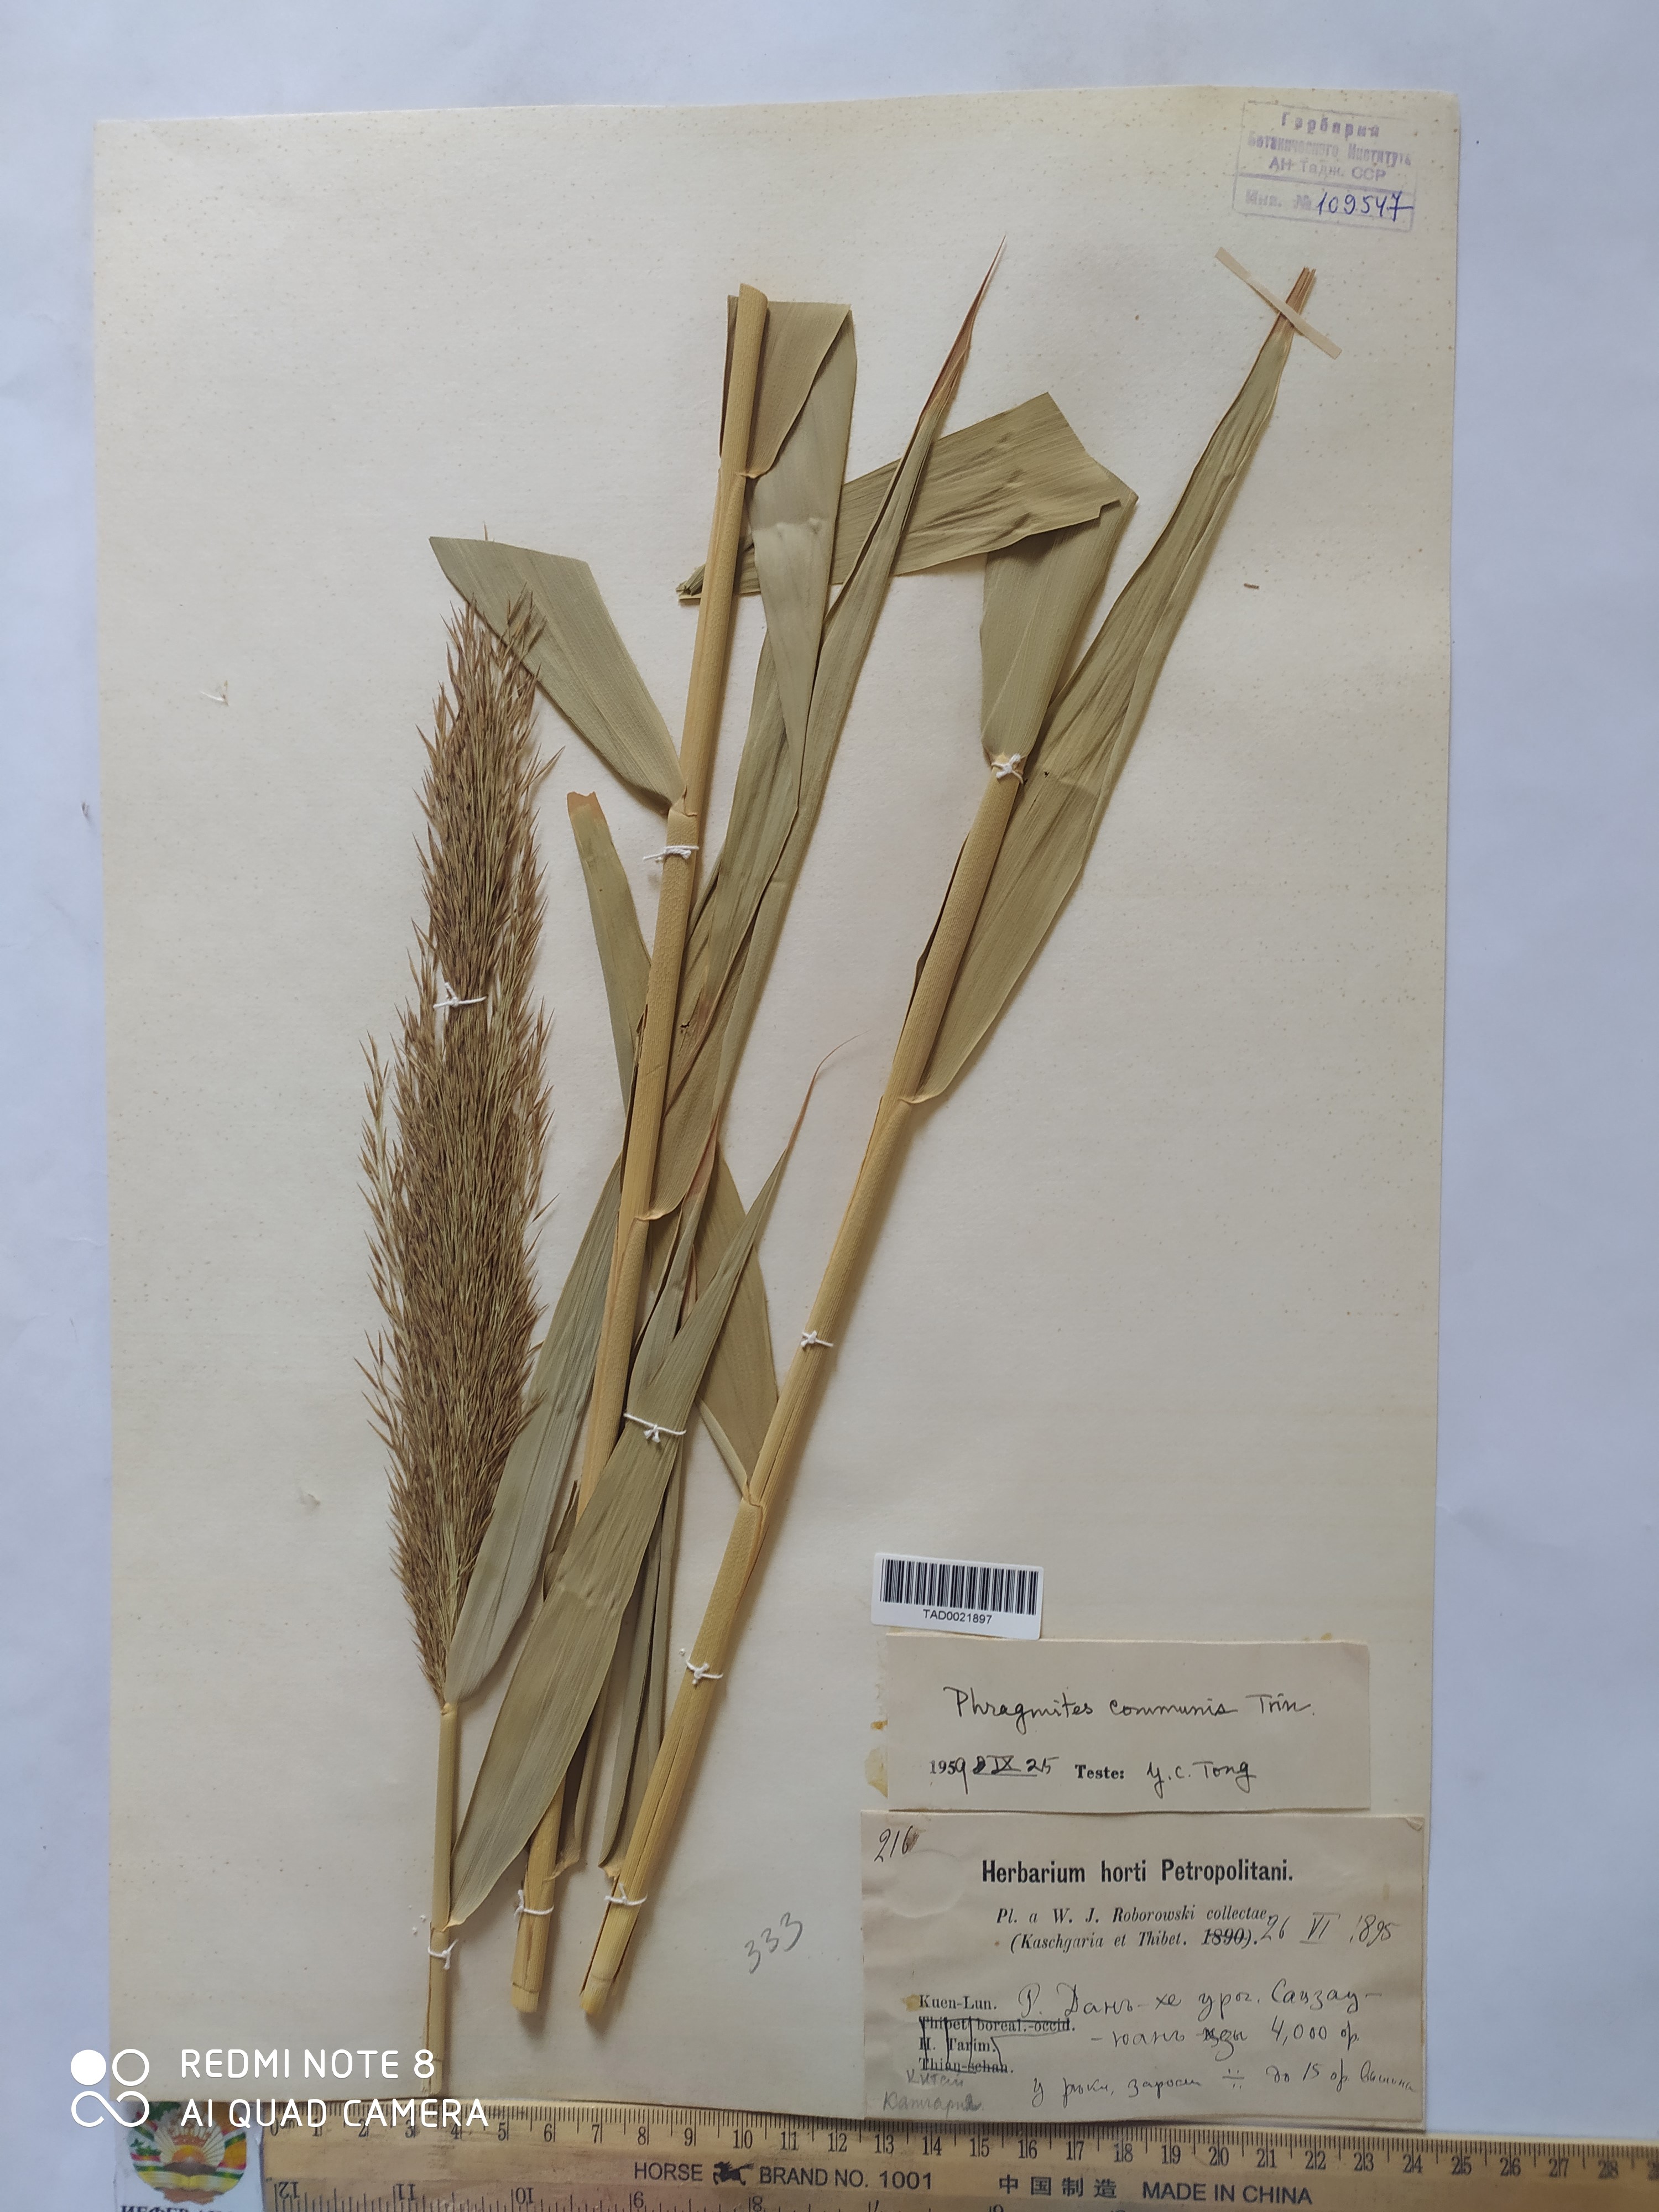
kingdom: Plantae
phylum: Tracheophyta
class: Liliopsida
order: Poales
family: Poaceae
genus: Phragmites
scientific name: Phragmites australis
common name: Common reed
